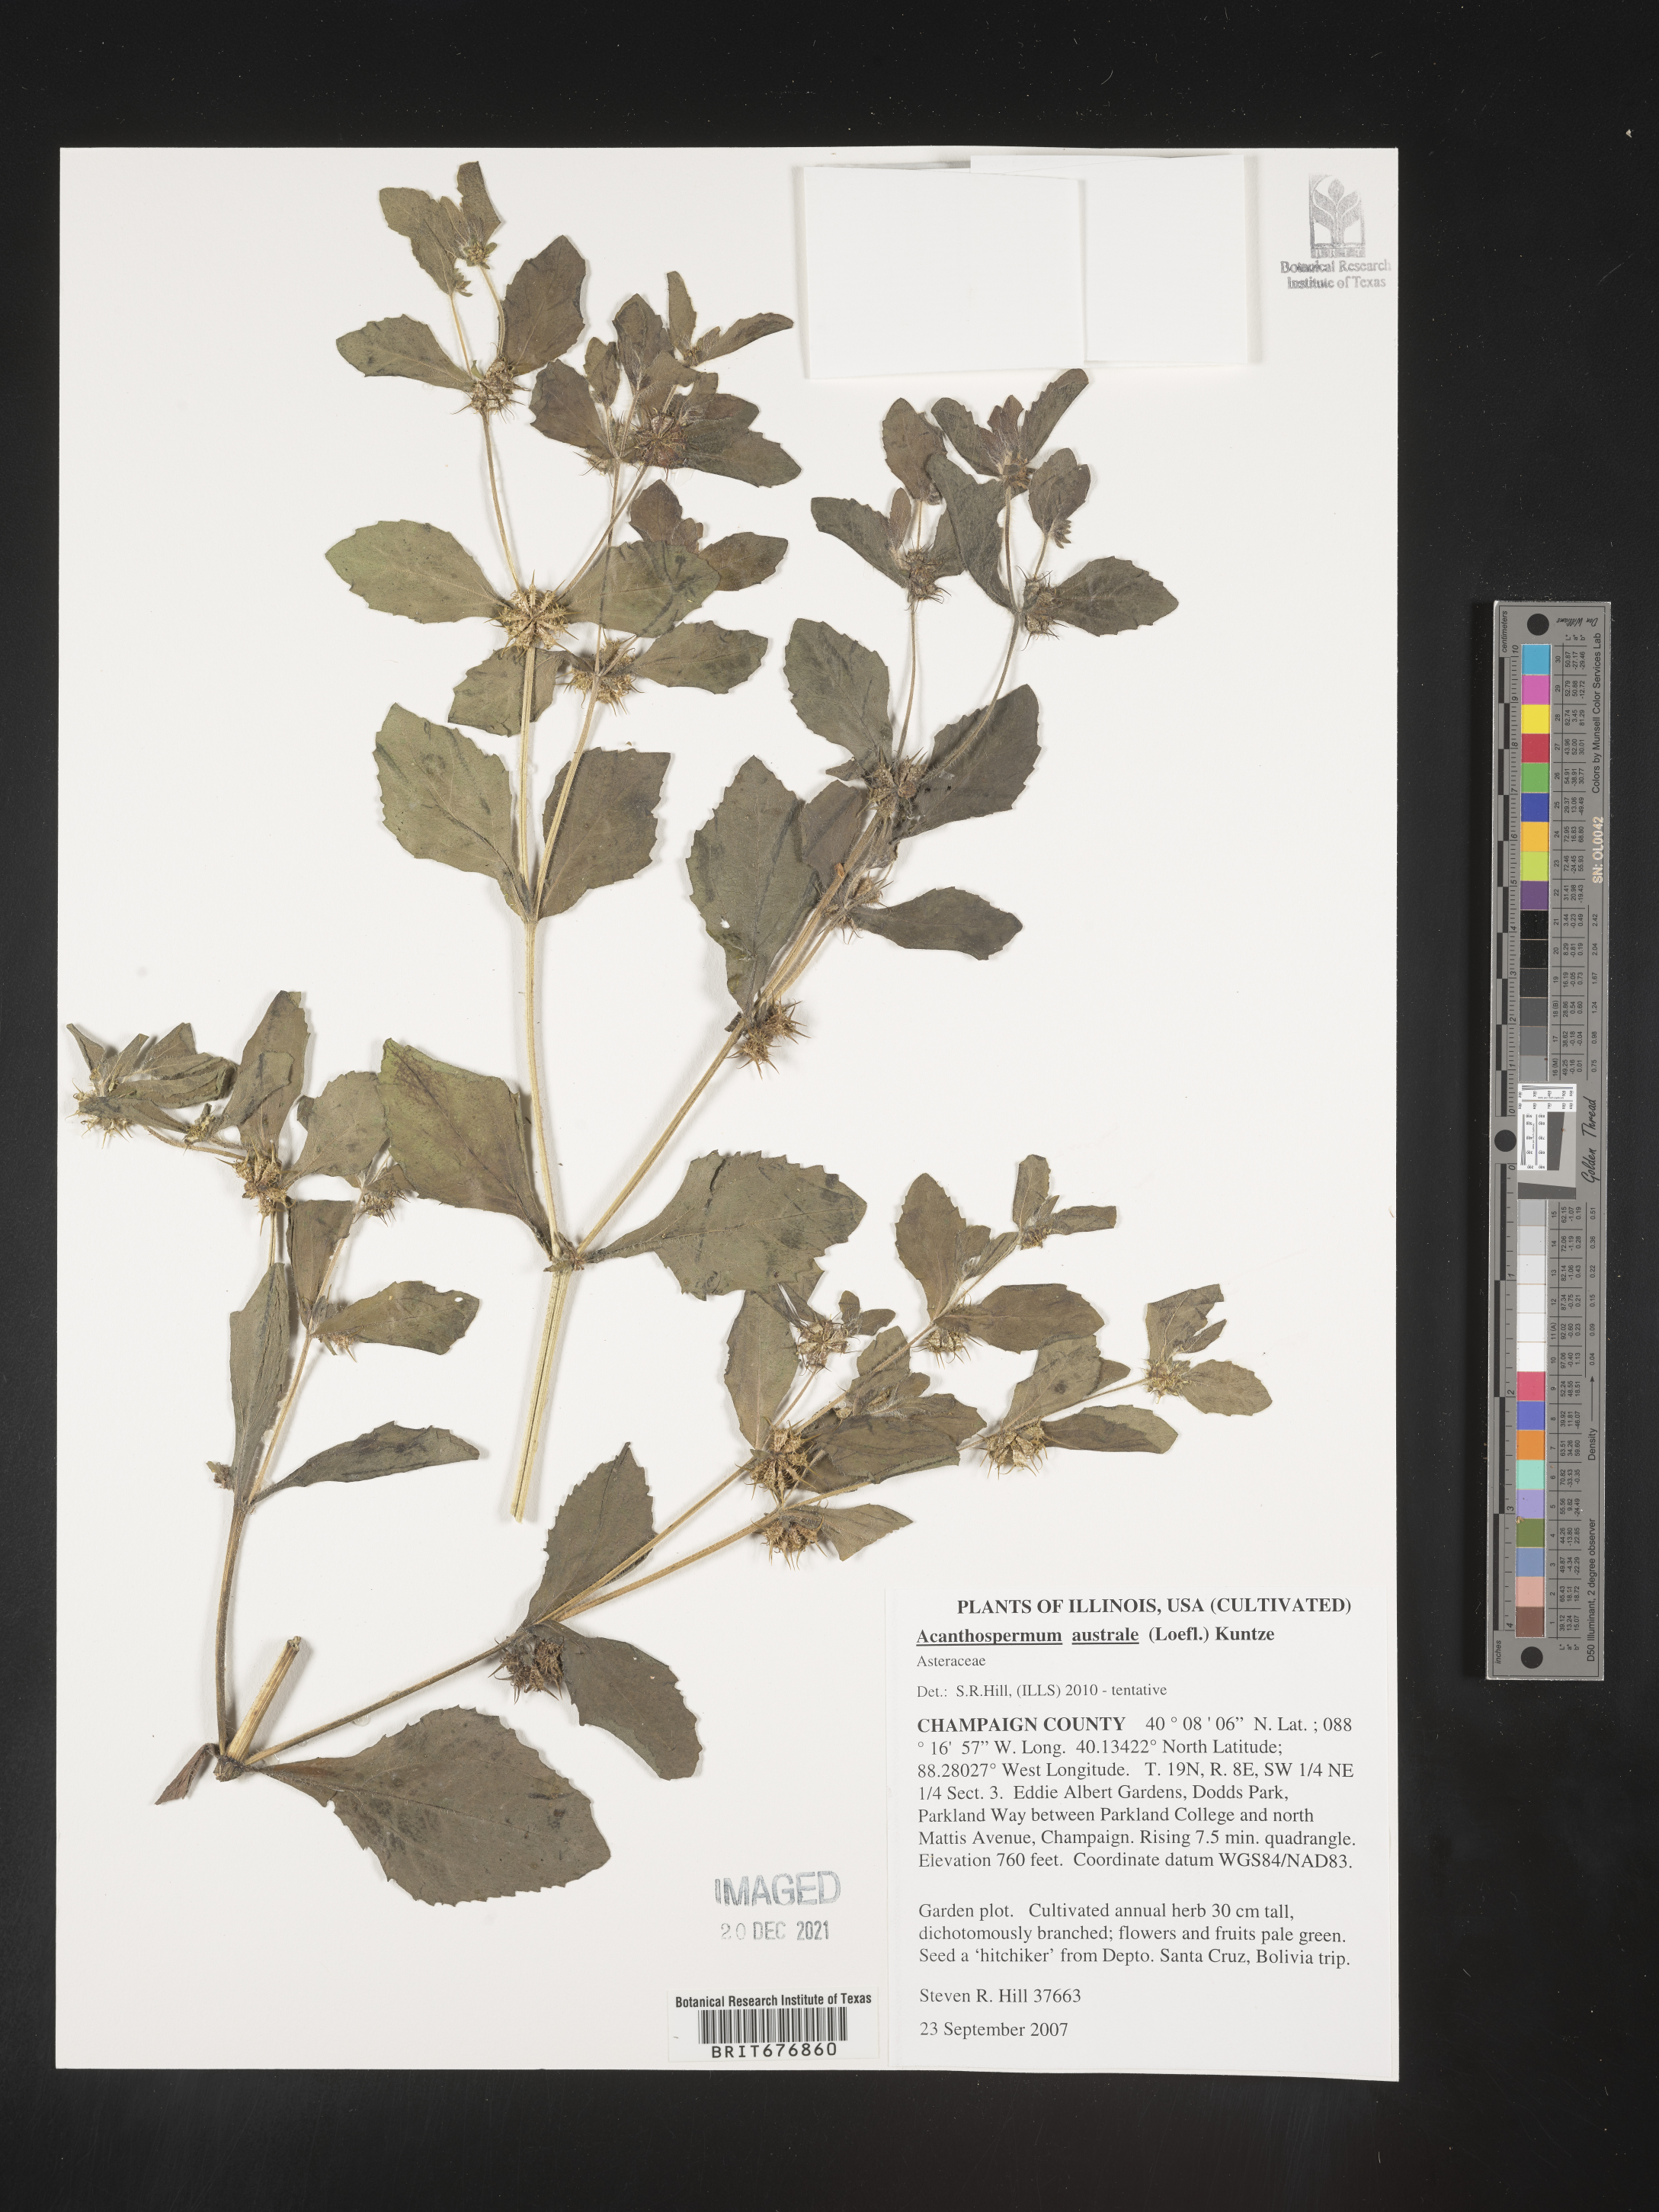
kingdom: Plantae
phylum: Tracheophyta
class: Magnoliopsida
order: Asterales
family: Asteraceae
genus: Acanthospermum
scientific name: Acanthospermum australe
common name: Paraguayan starbur
